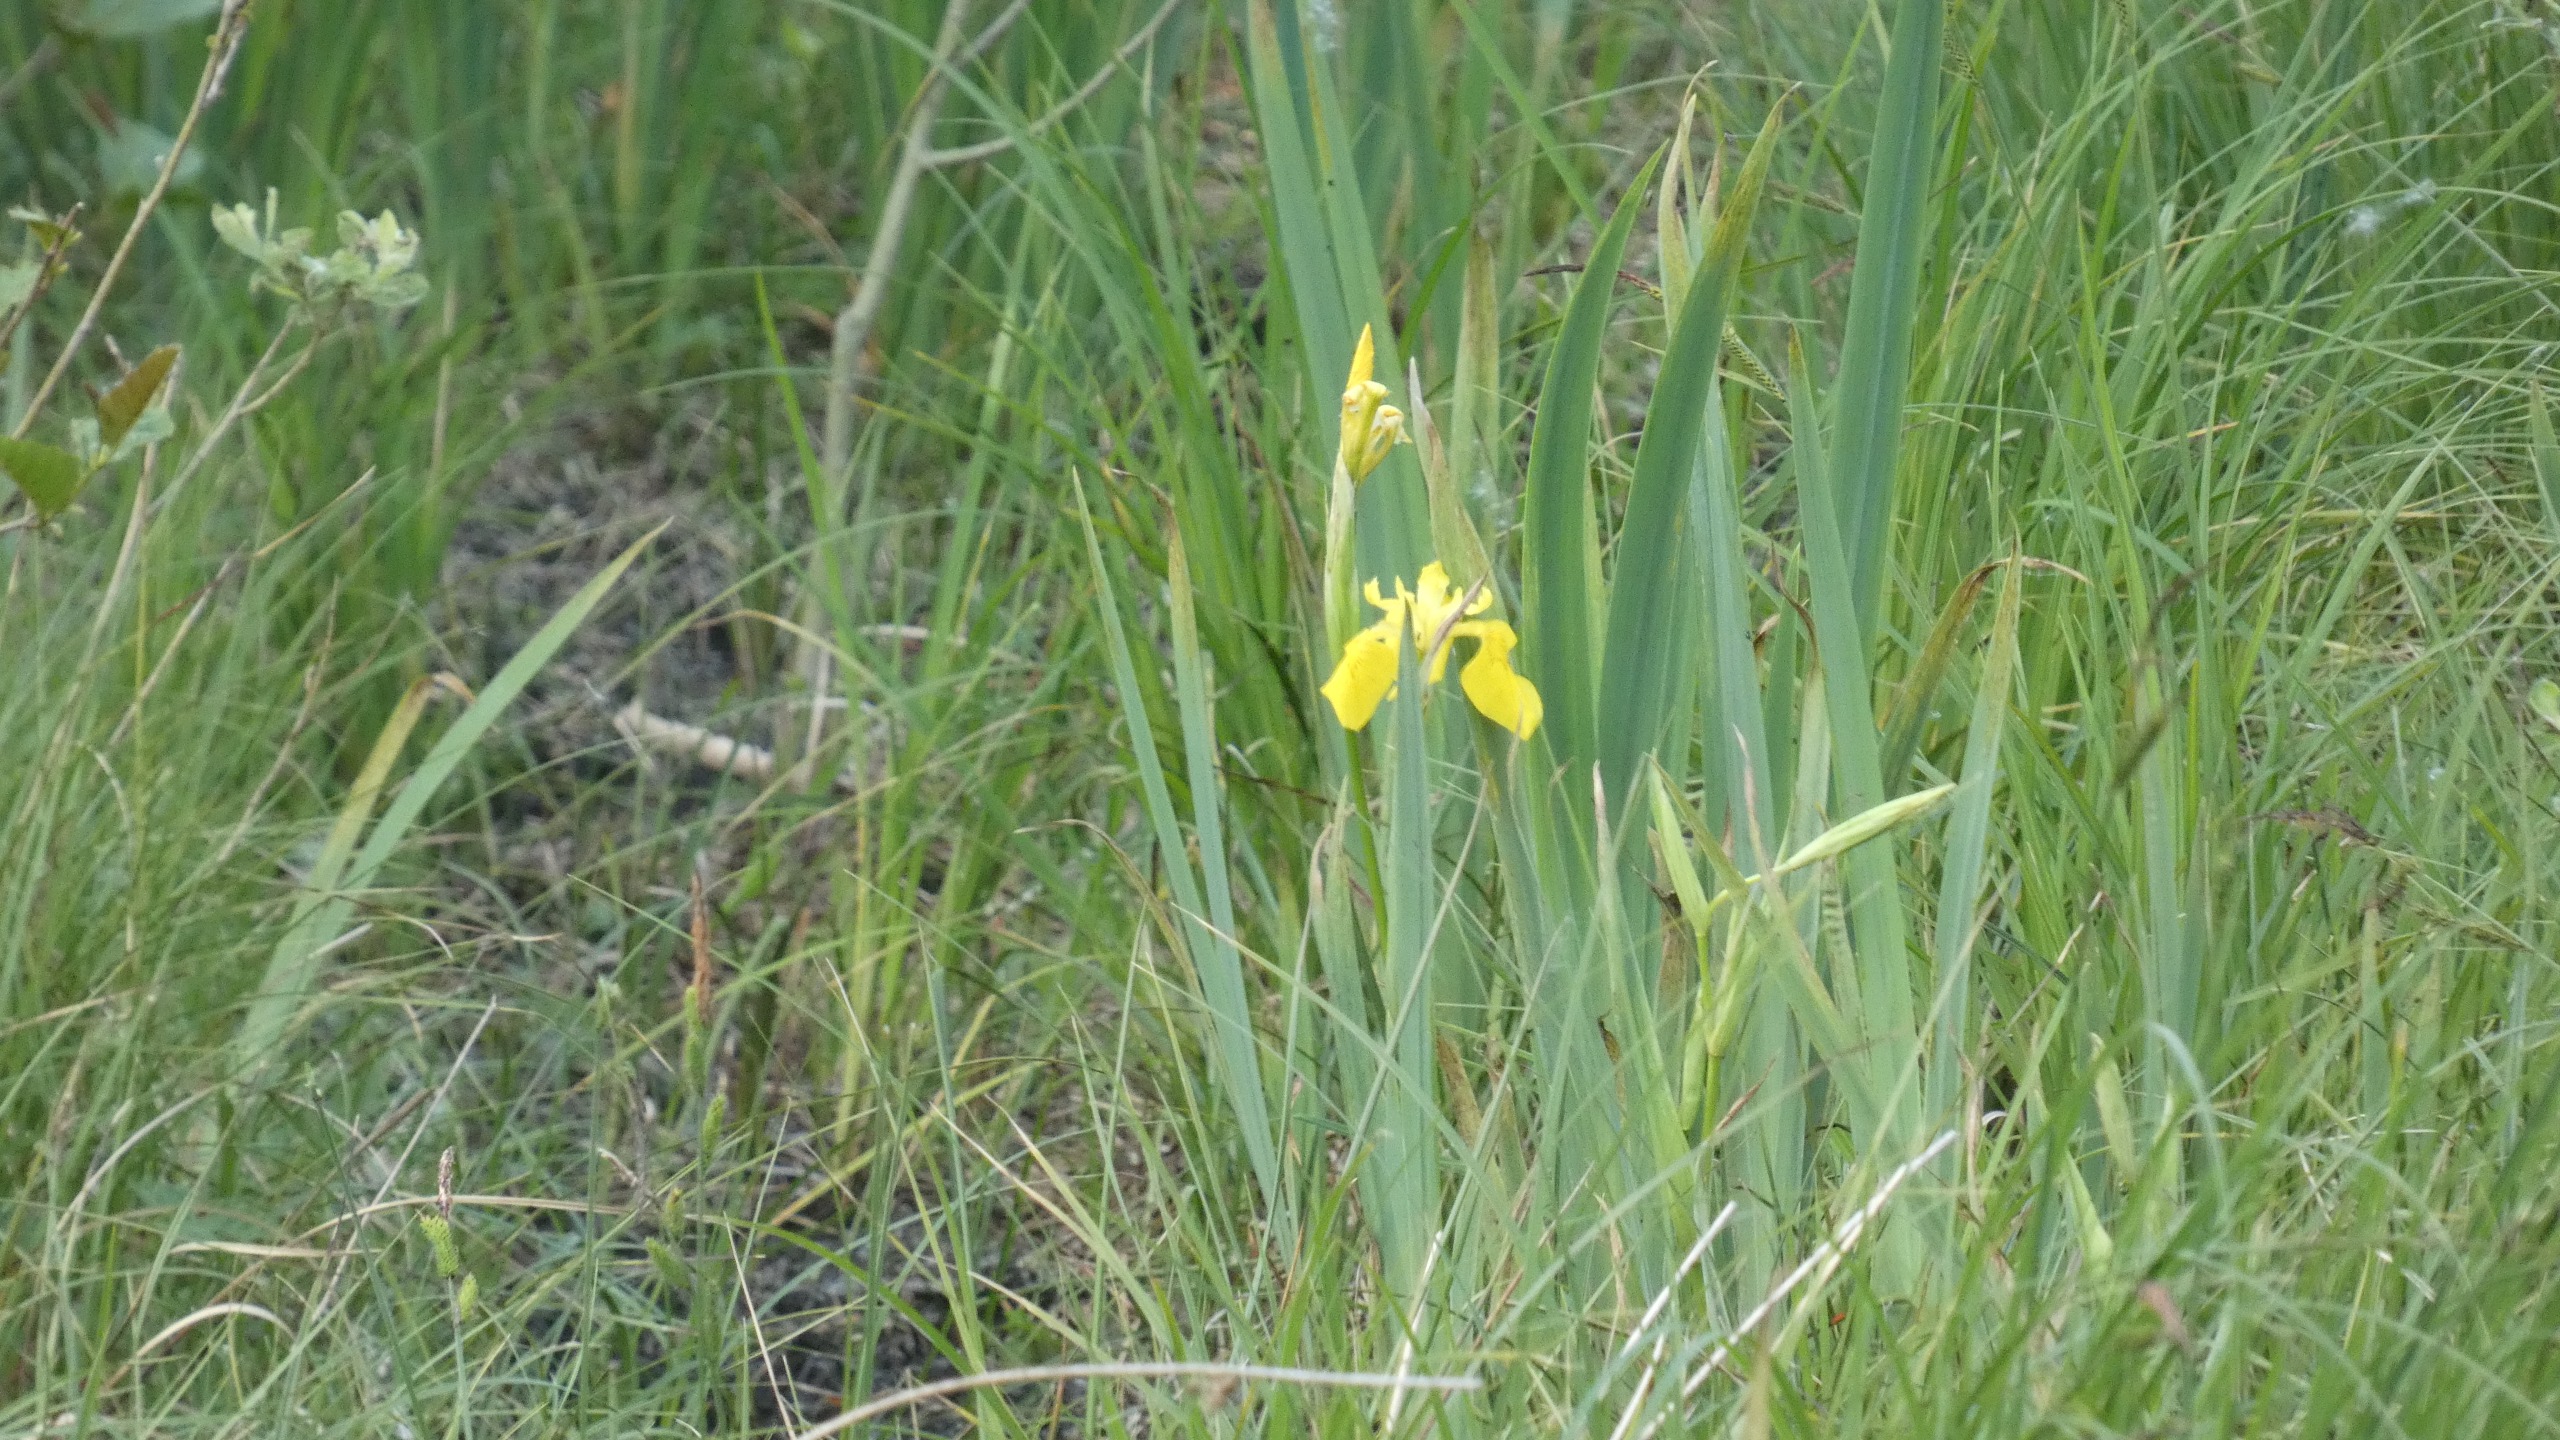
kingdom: Plantae
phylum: Tracheophyta
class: Liliopsida
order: Asparagales
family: Iridaceae
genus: Iris
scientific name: Iris pseudacorus
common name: Gul iris
